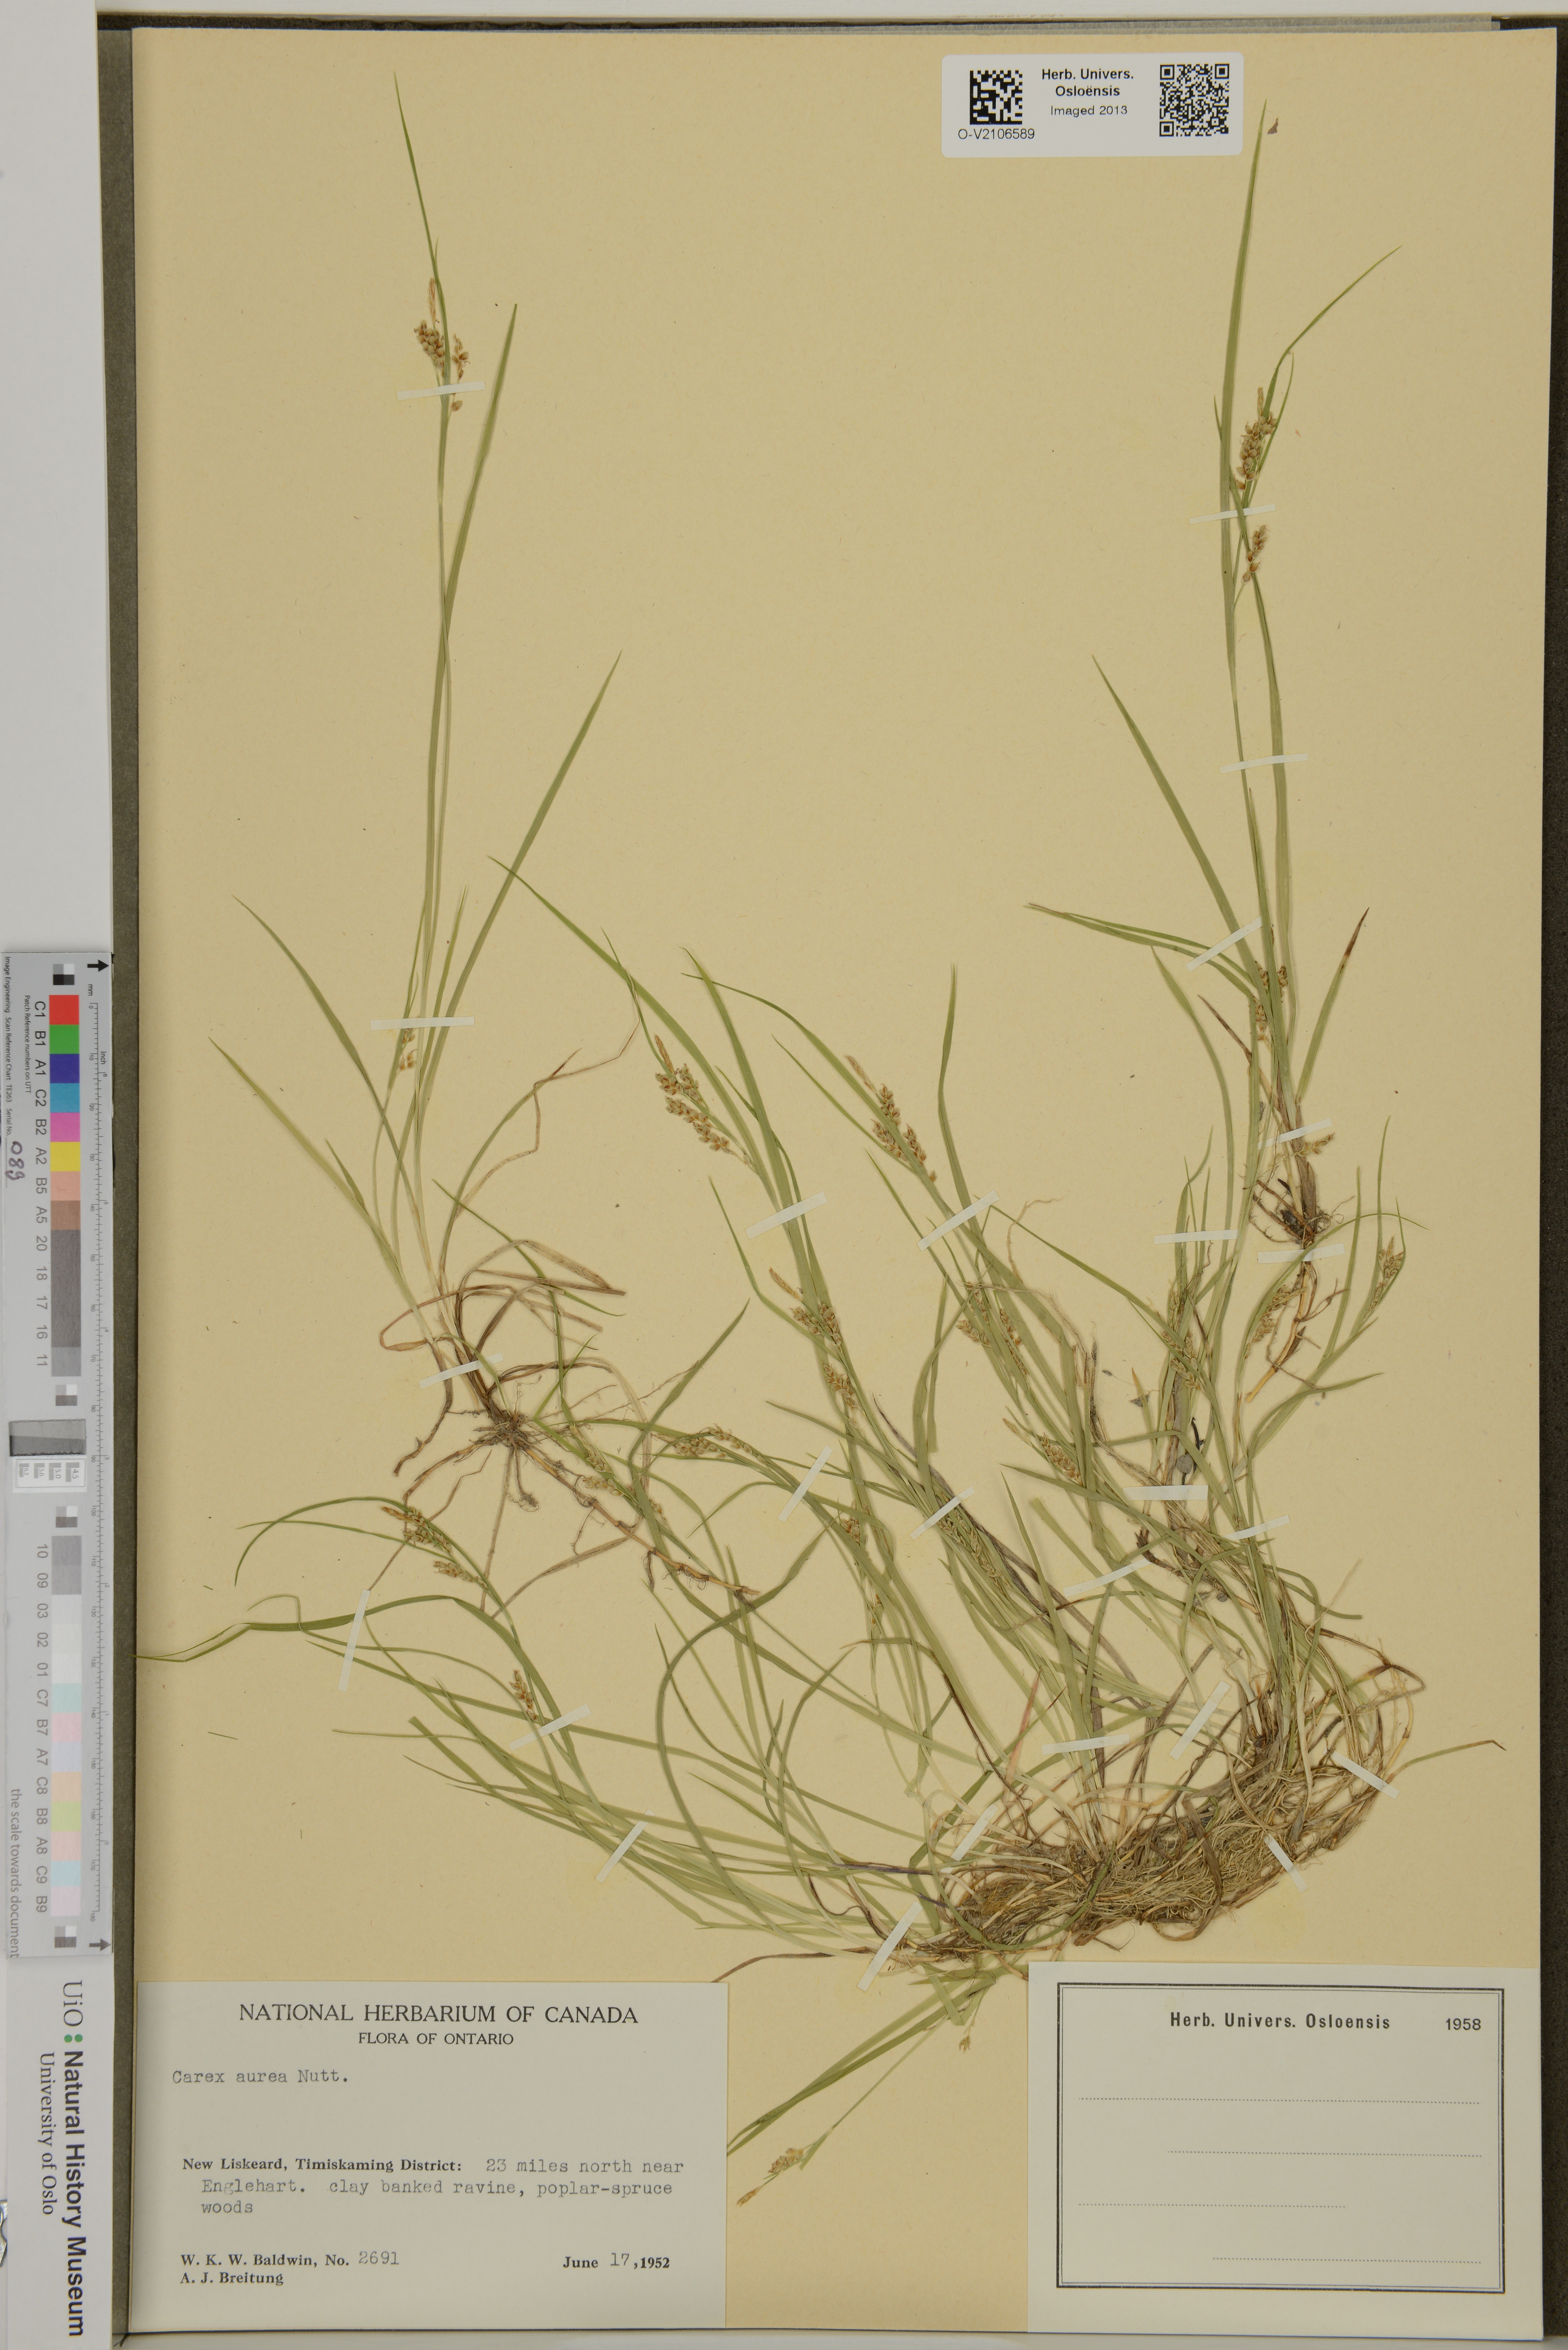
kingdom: Plantae
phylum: Tracheophyta
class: Liliopsida
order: Poales
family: Cyperaceae
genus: Carex
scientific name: Carex aurea
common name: Golden sedge
